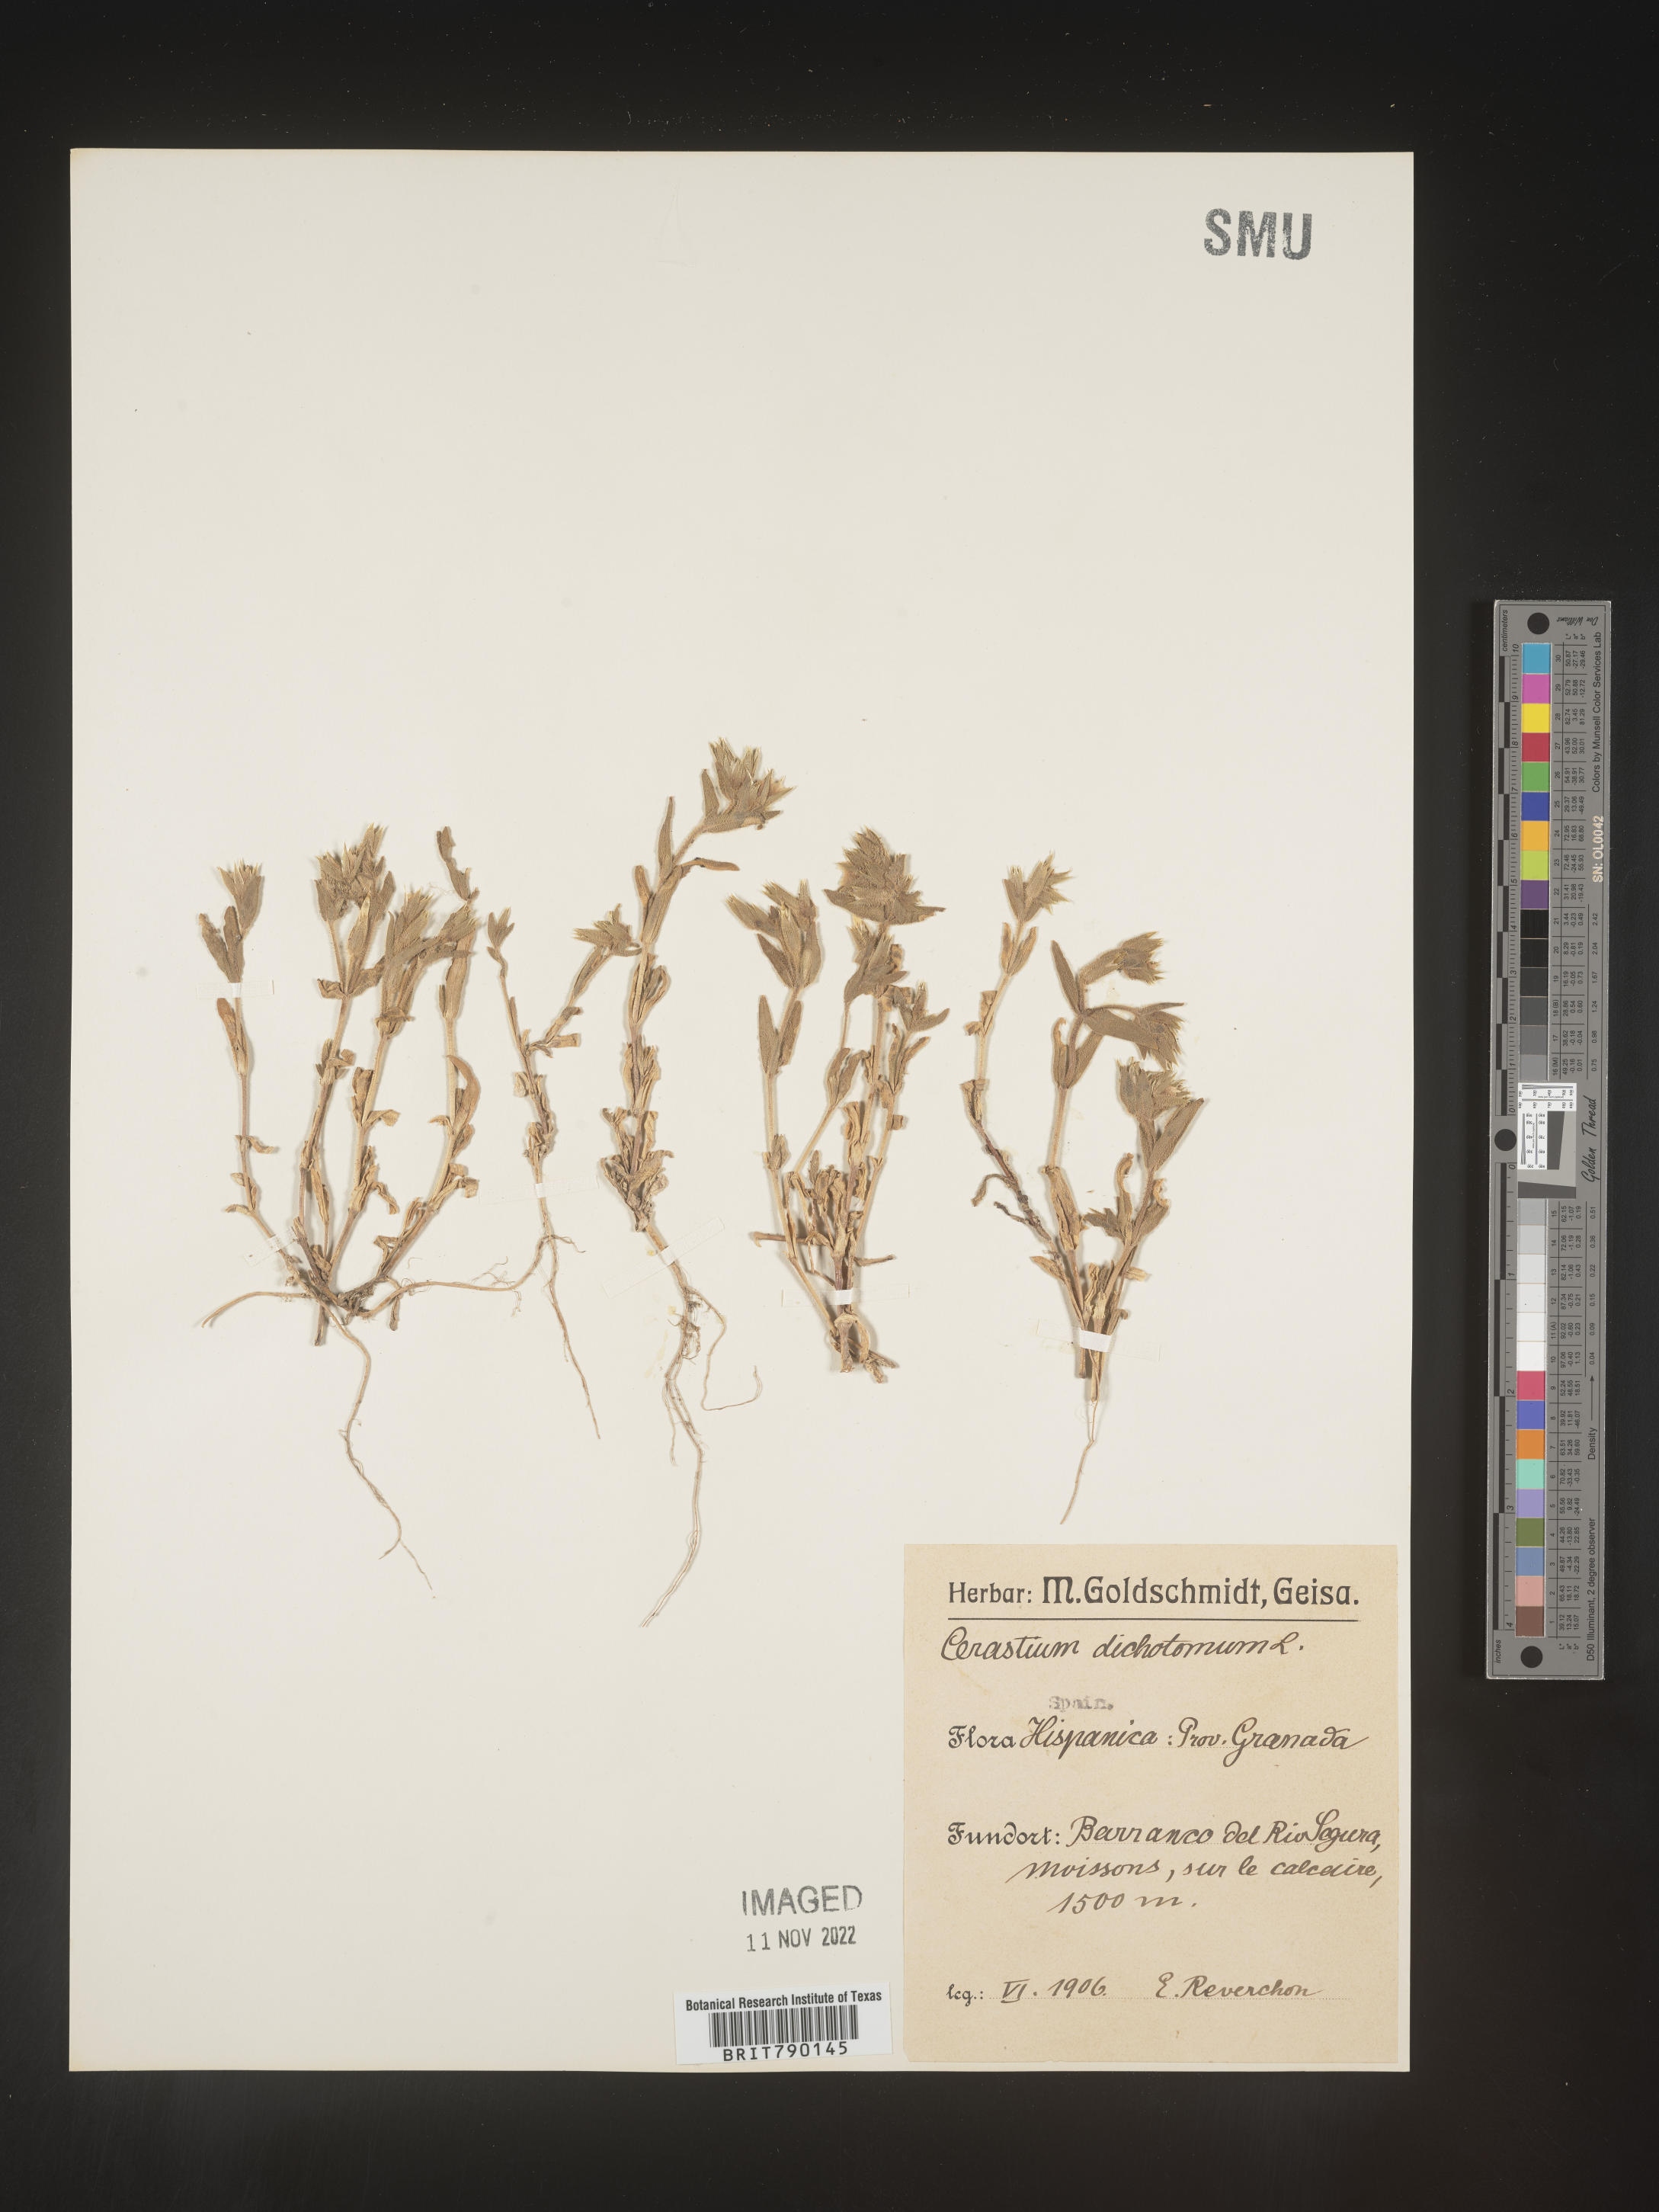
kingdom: Plantae
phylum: Tracheophyta
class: Magnoliopsida
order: Caryophyllales
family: Caryophyllaceae
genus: Cerastium
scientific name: Cerastium
